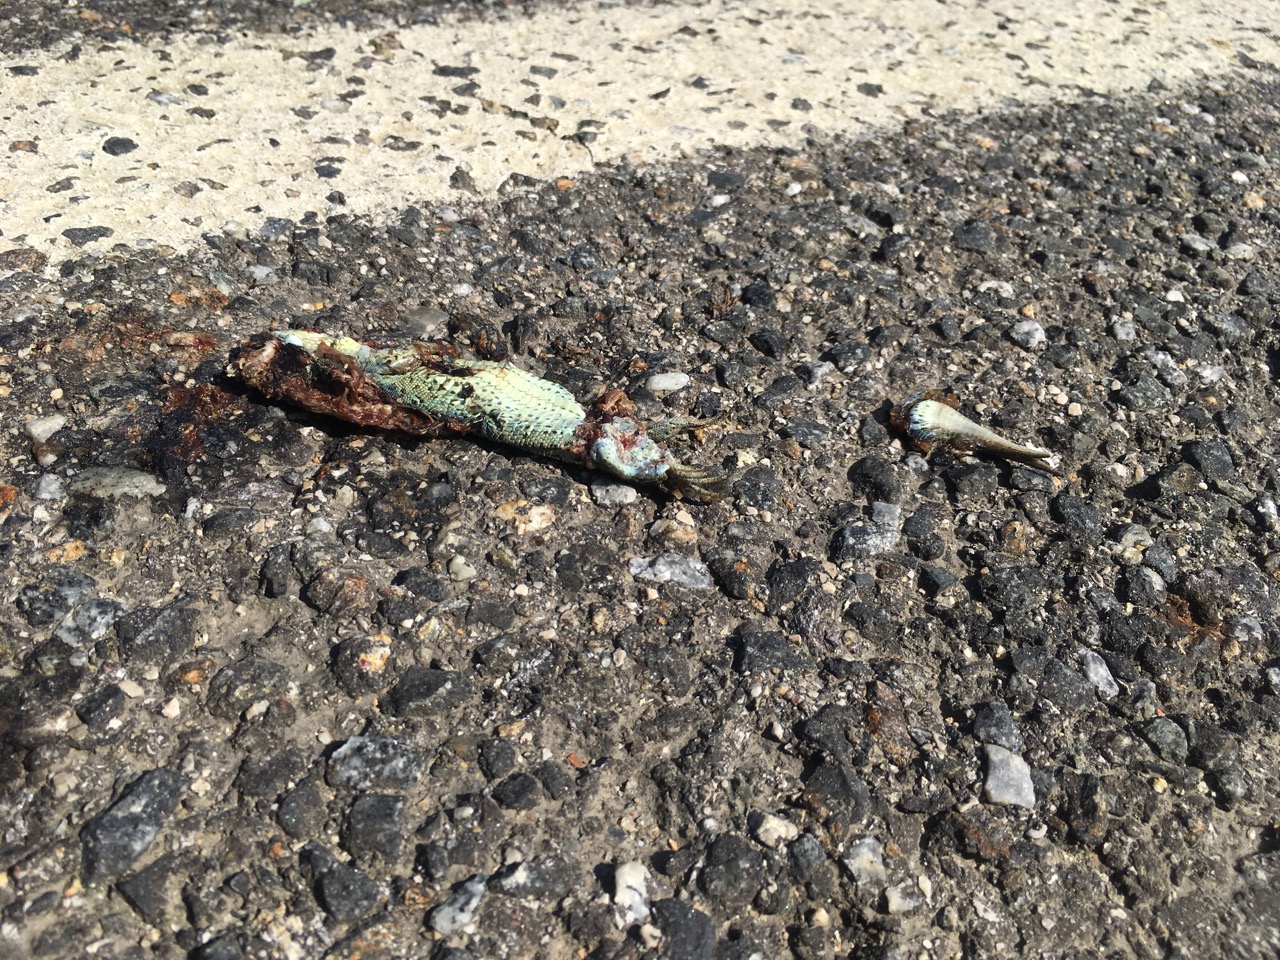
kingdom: Animalia
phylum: Chordata
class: Squamata
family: Lacertidae
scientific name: Lacertidae
